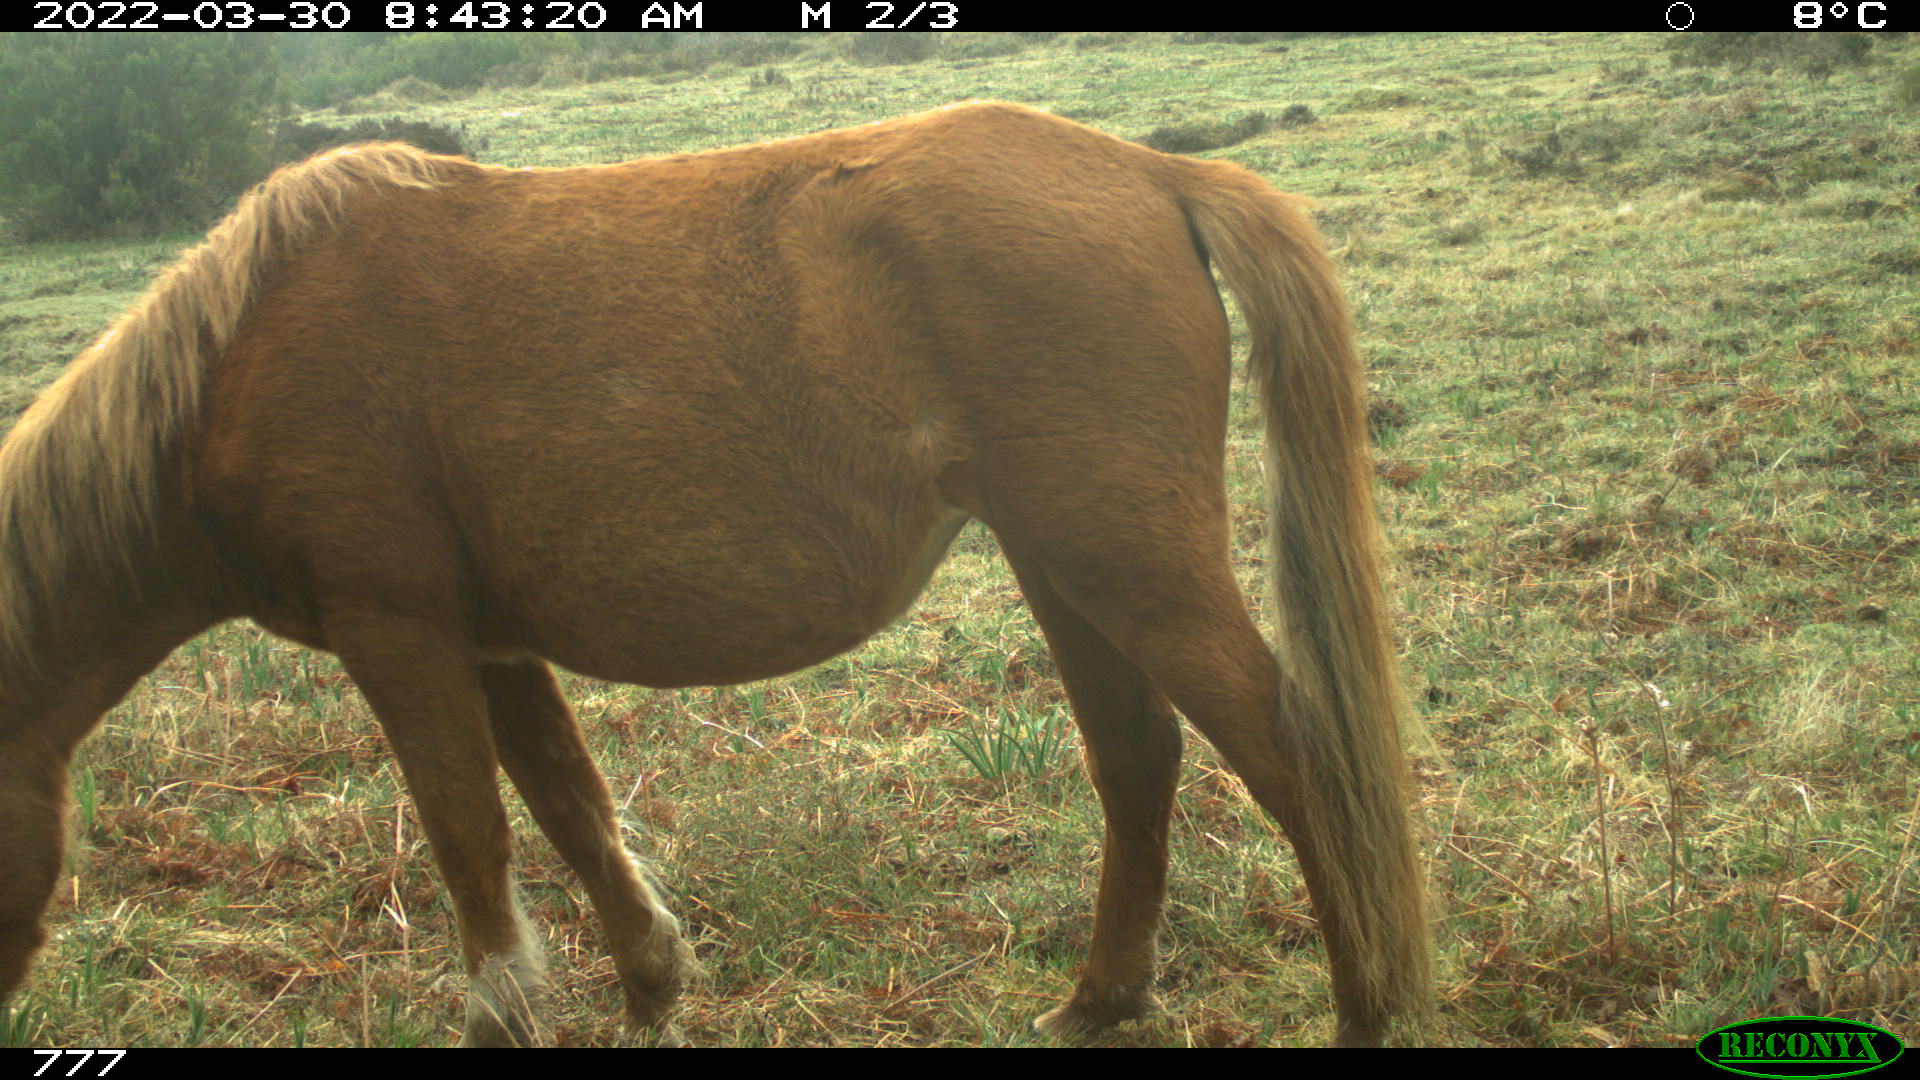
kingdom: Animalia
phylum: Chordata
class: Mammalia
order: Perissodactyla
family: Equidae
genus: Equus
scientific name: Equus caballus
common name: Horse
